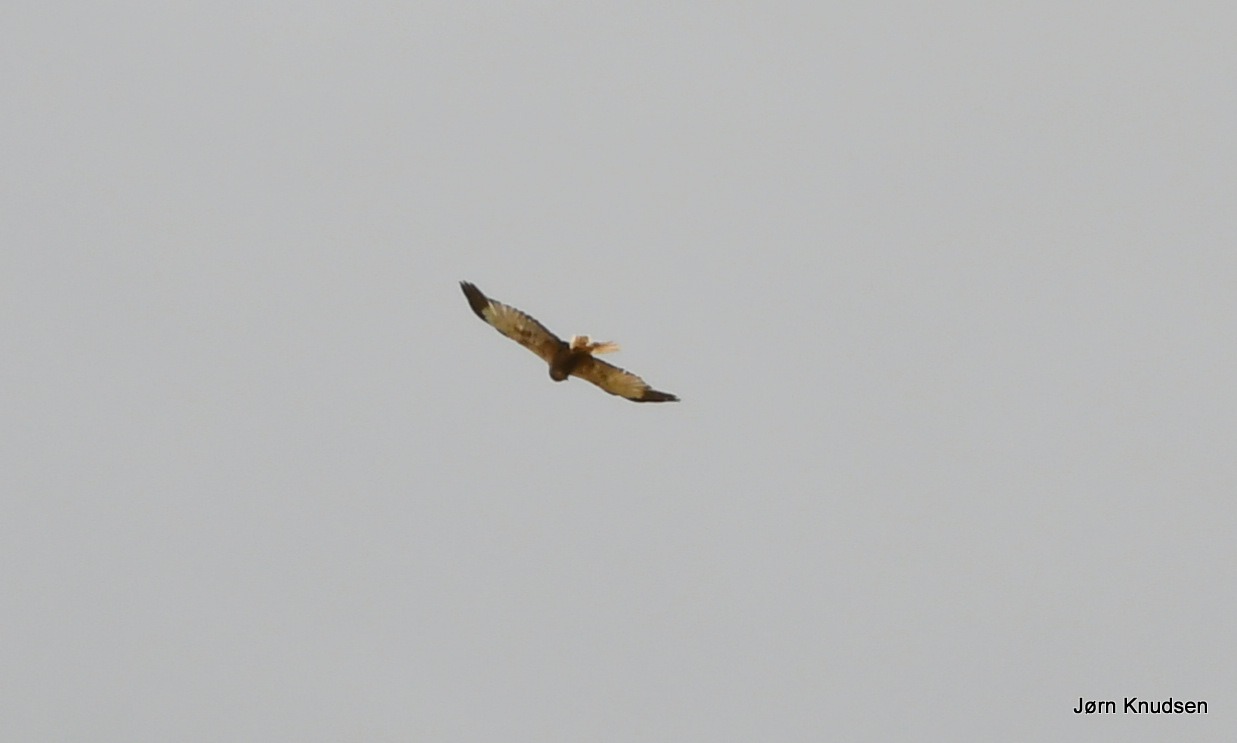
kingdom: Animalia
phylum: Chordata
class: Aves
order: Accipitriformes
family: Accipitridae
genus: Circus
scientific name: Circus aeruginosus
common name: Rørhøg
